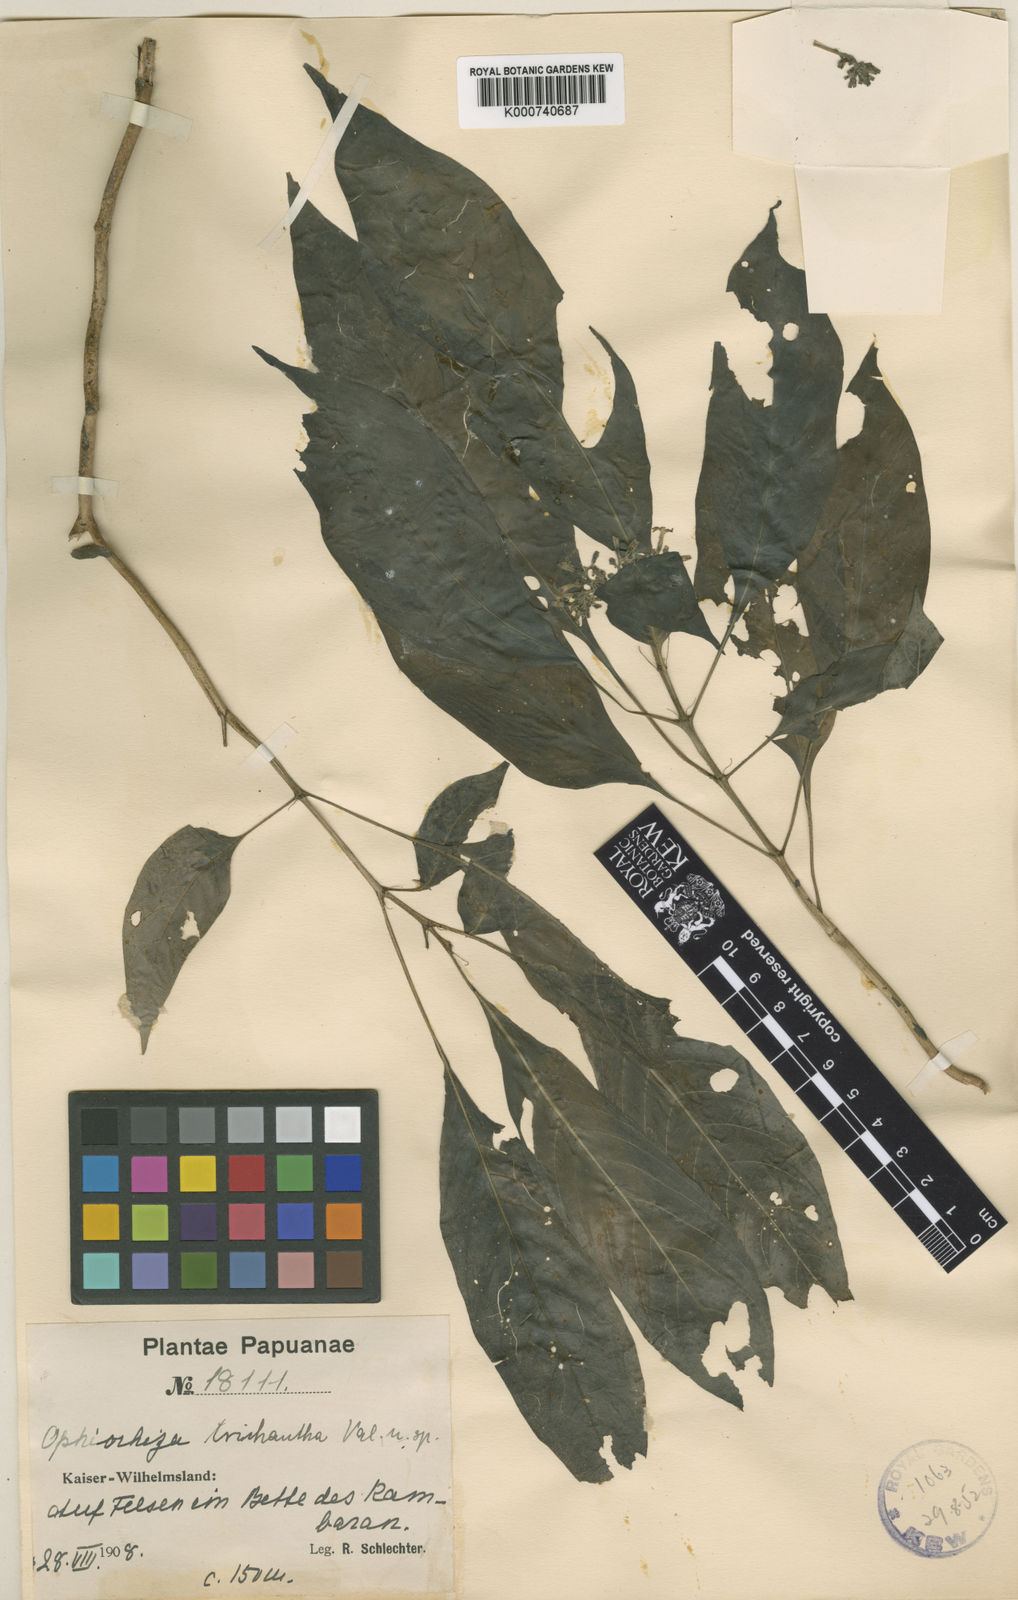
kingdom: Plantae
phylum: Tracheophyta
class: Magnoliopsida
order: Gentianales
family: Rubiaceae
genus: Ophiorrhiza
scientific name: Ophiorrhiza trichantha
